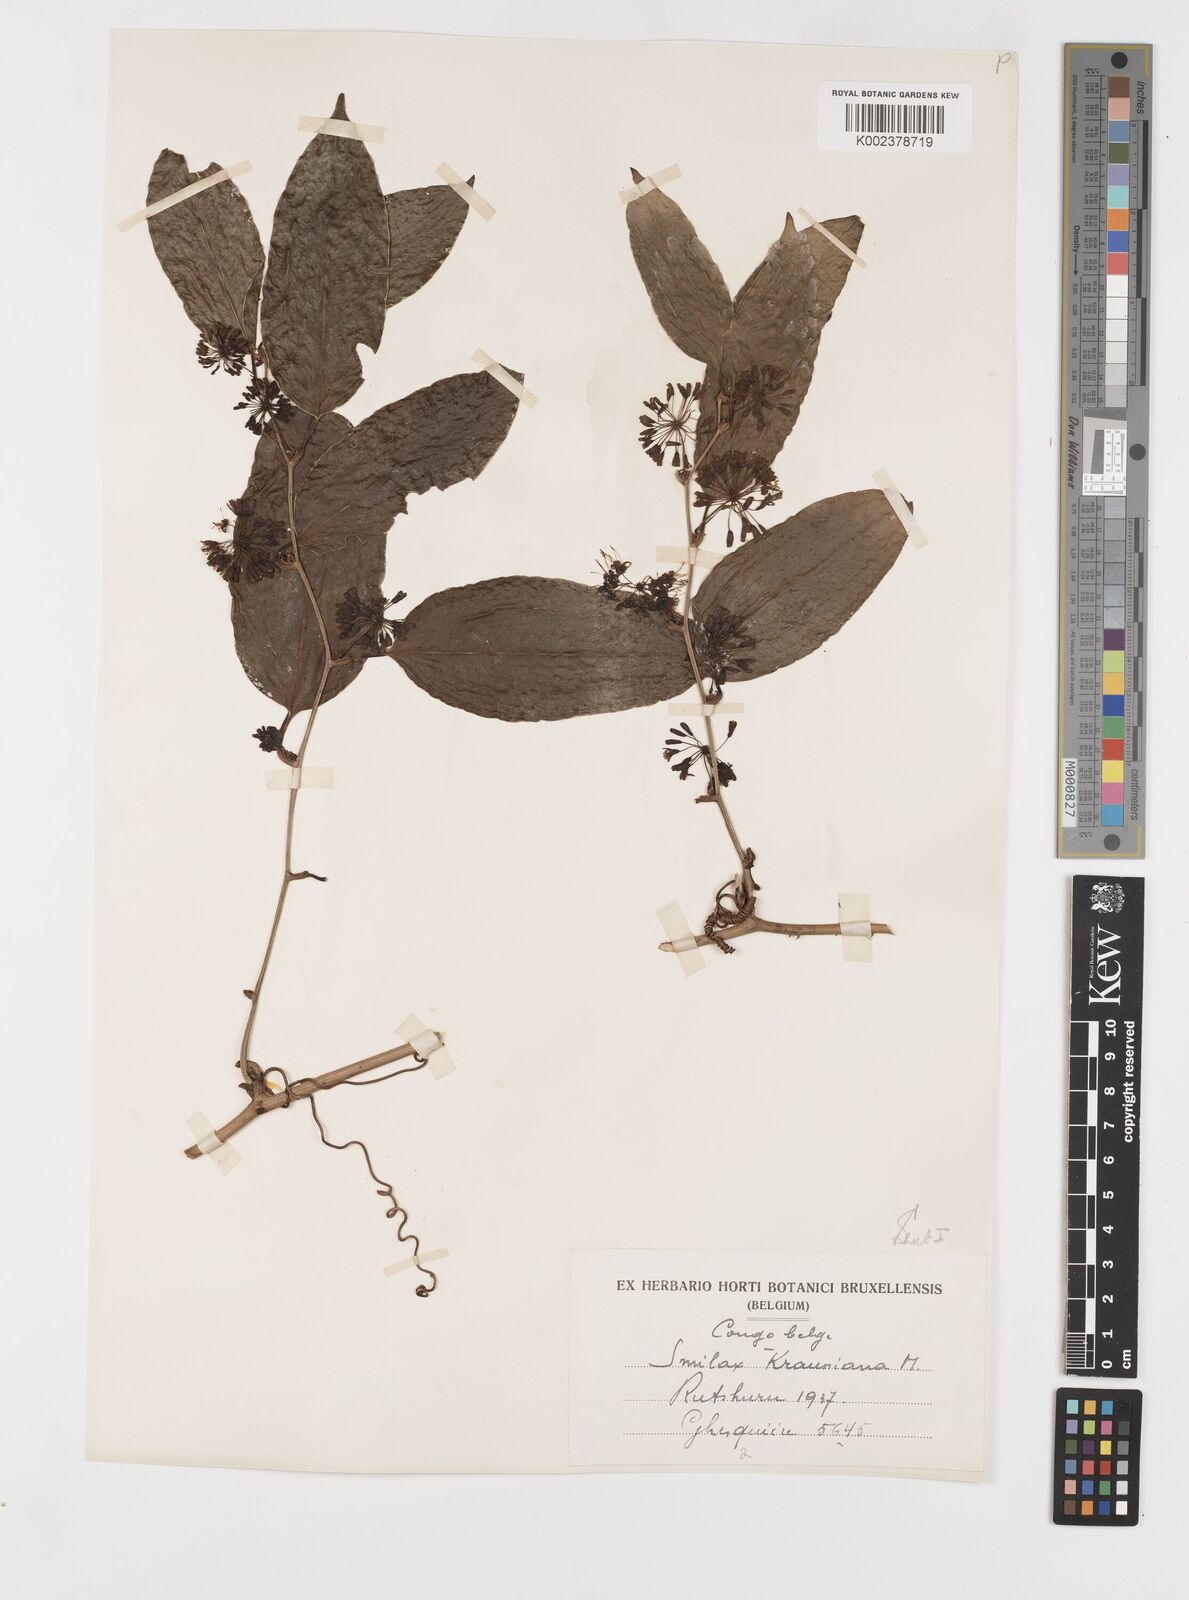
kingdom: Plantae
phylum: Tracheophyta
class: Liliopsida
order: Liliales
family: Smilacaceae
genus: Smilax
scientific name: Smilax anceps
